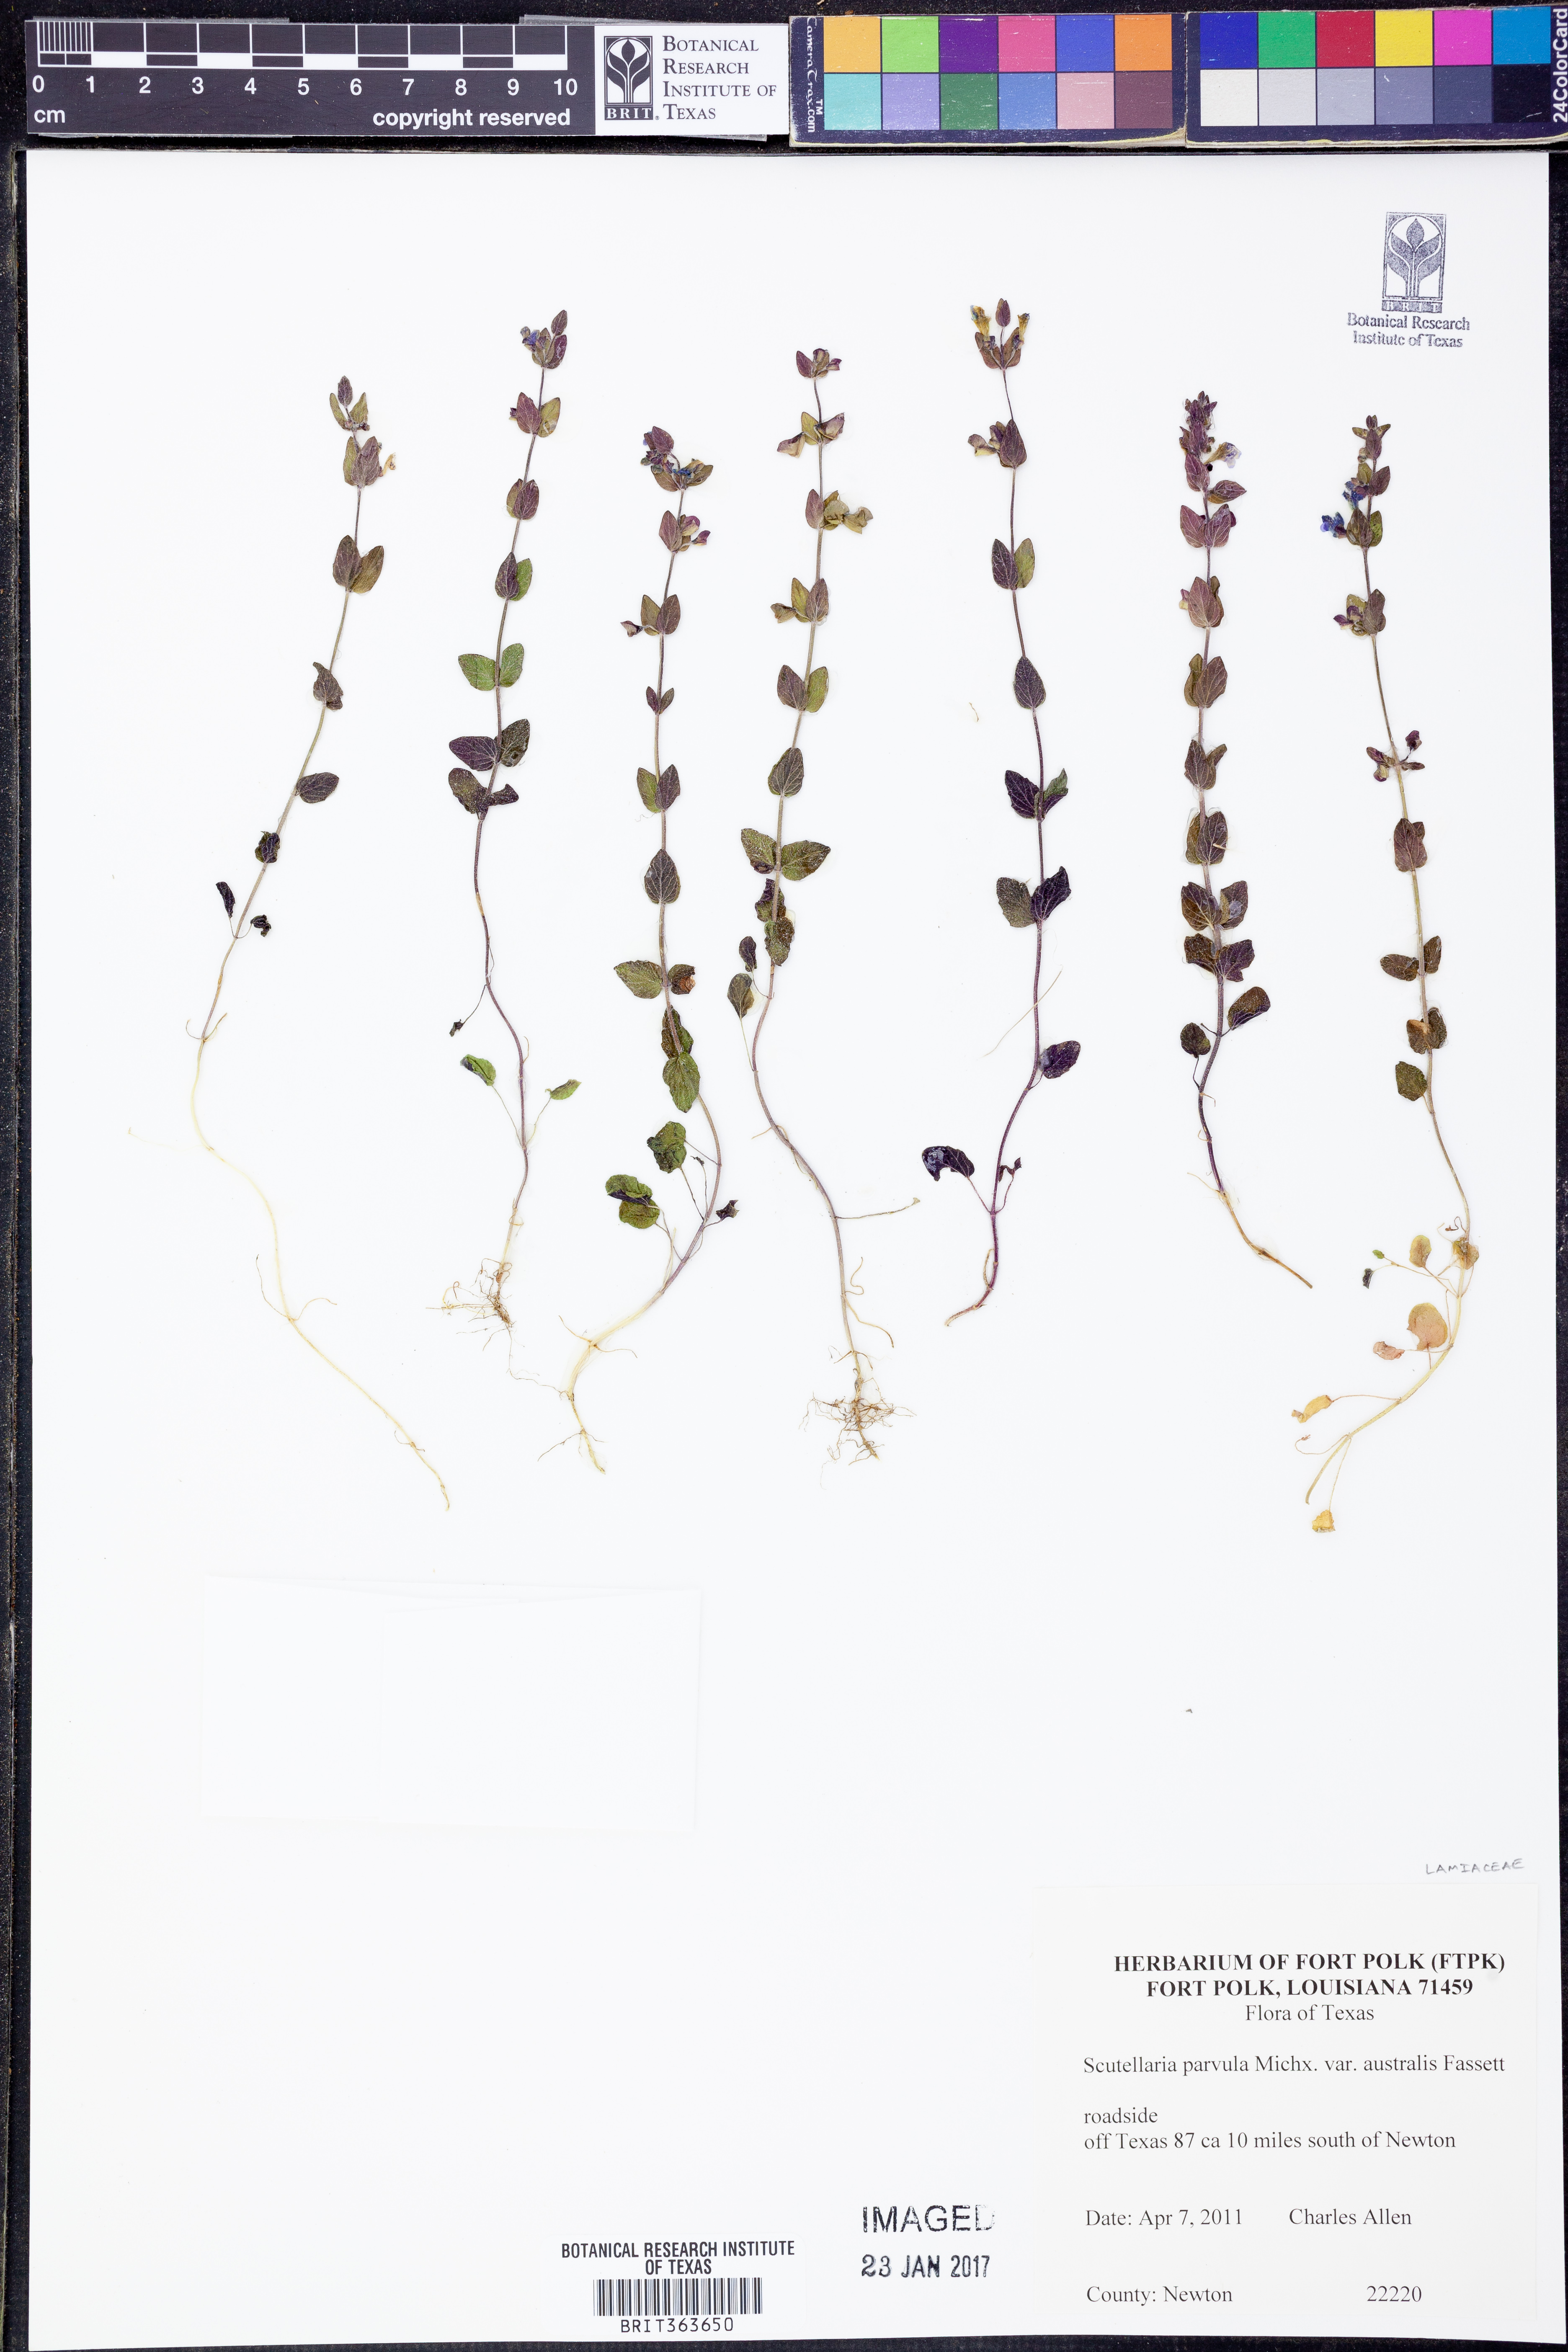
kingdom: Plantae
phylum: Tracheophyta
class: Magnoliopsida
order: Lamiales
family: Lamiaceae
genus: Scutellaria
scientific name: Scutellaria parvula
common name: Little scullcap
